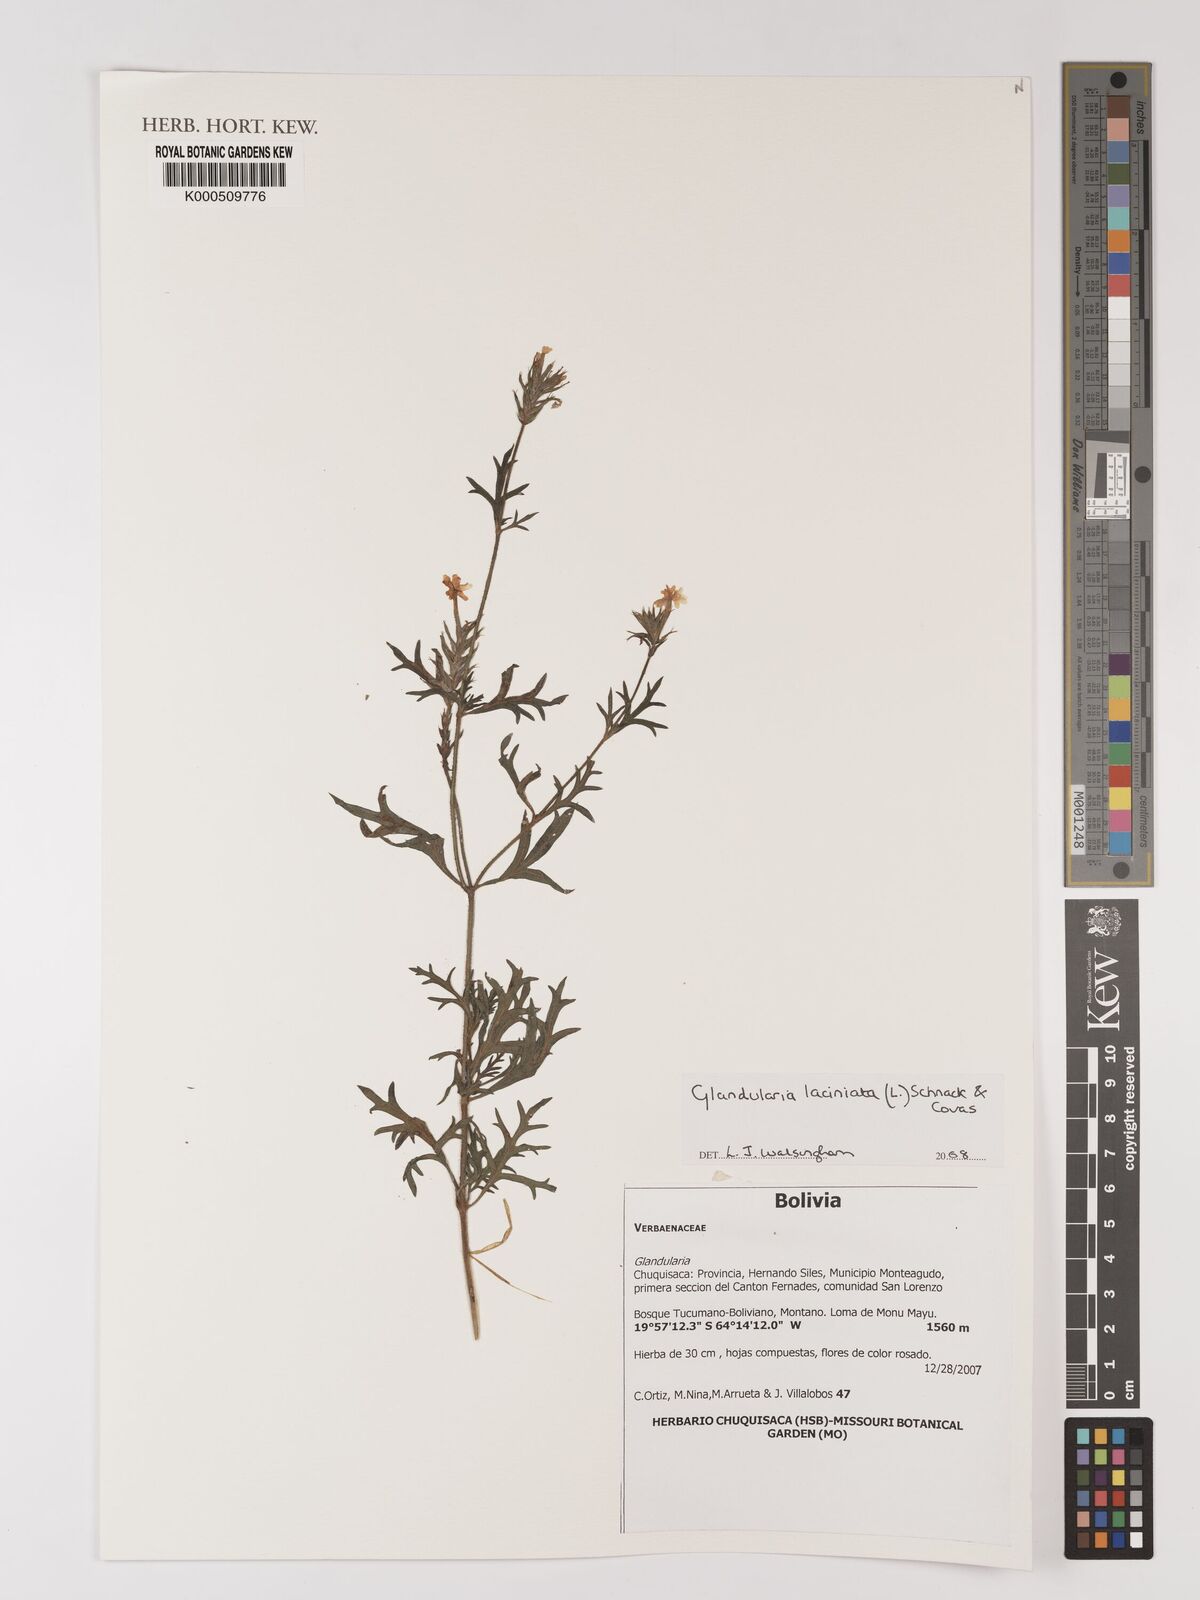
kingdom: Plantae
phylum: Tracheophyta
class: Magnoliopsida
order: Lamiales
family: Verbenaceae
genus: Verbena
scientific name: Verbena laciniata
